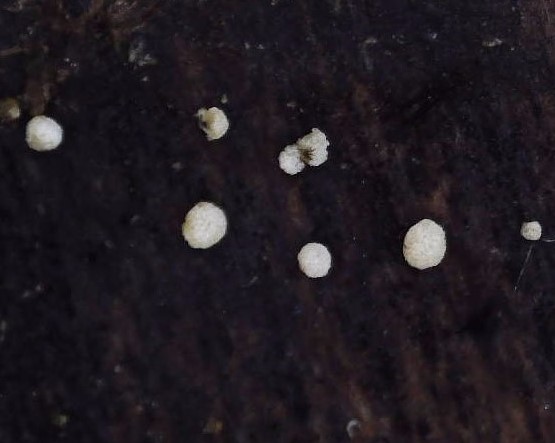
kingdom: Fungi
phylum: Ascomycota
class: Leotiomycetes
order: Helotiales
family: Hyaloscyphaceae
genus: Polydesmia
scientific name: Polydesmia pruinosa
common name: dunskive
